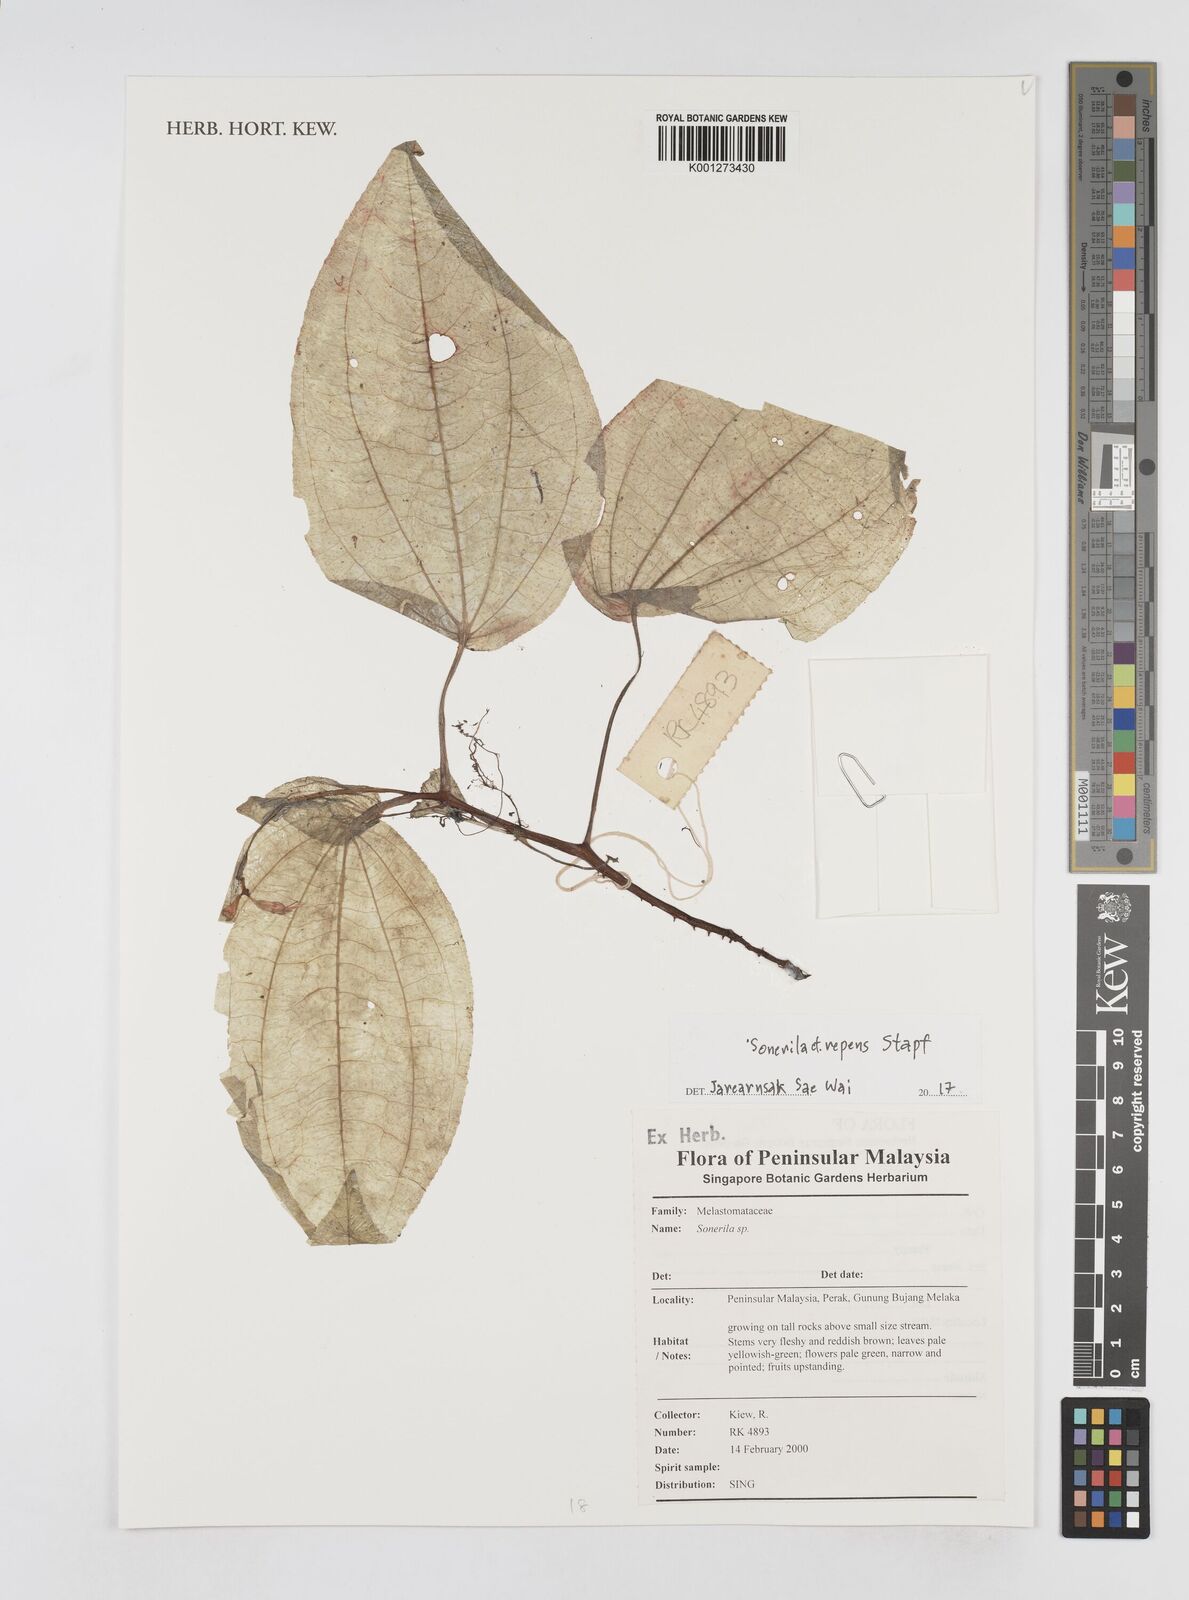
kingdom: Plantae
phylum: Tracheophyta
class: Magnoliopsida
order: Myrtales
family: Melastomataceae
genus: Sonerila
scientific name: Sonerila repens
